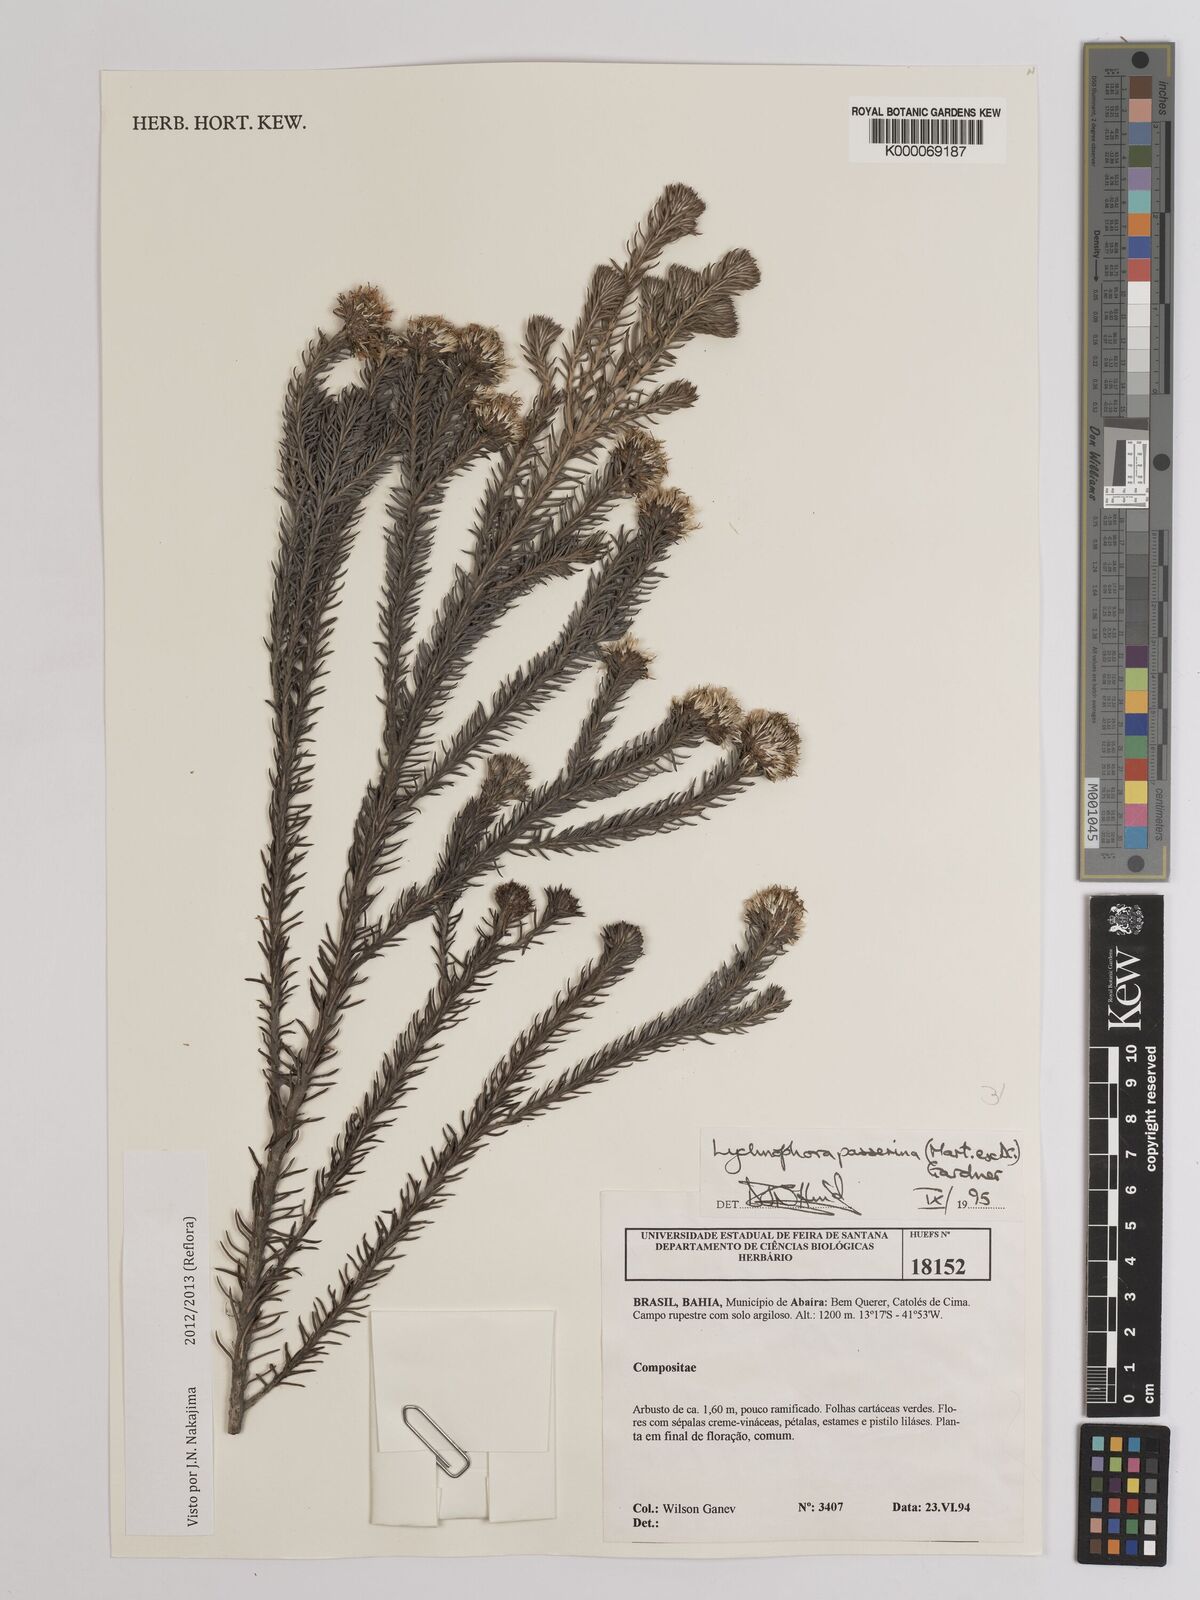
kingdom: Plantae
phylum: Tracheophyta
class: Magnoliopsida
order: Asterales
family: Asteraceae
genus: Lychnophora
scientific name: Lychnophora passerina
